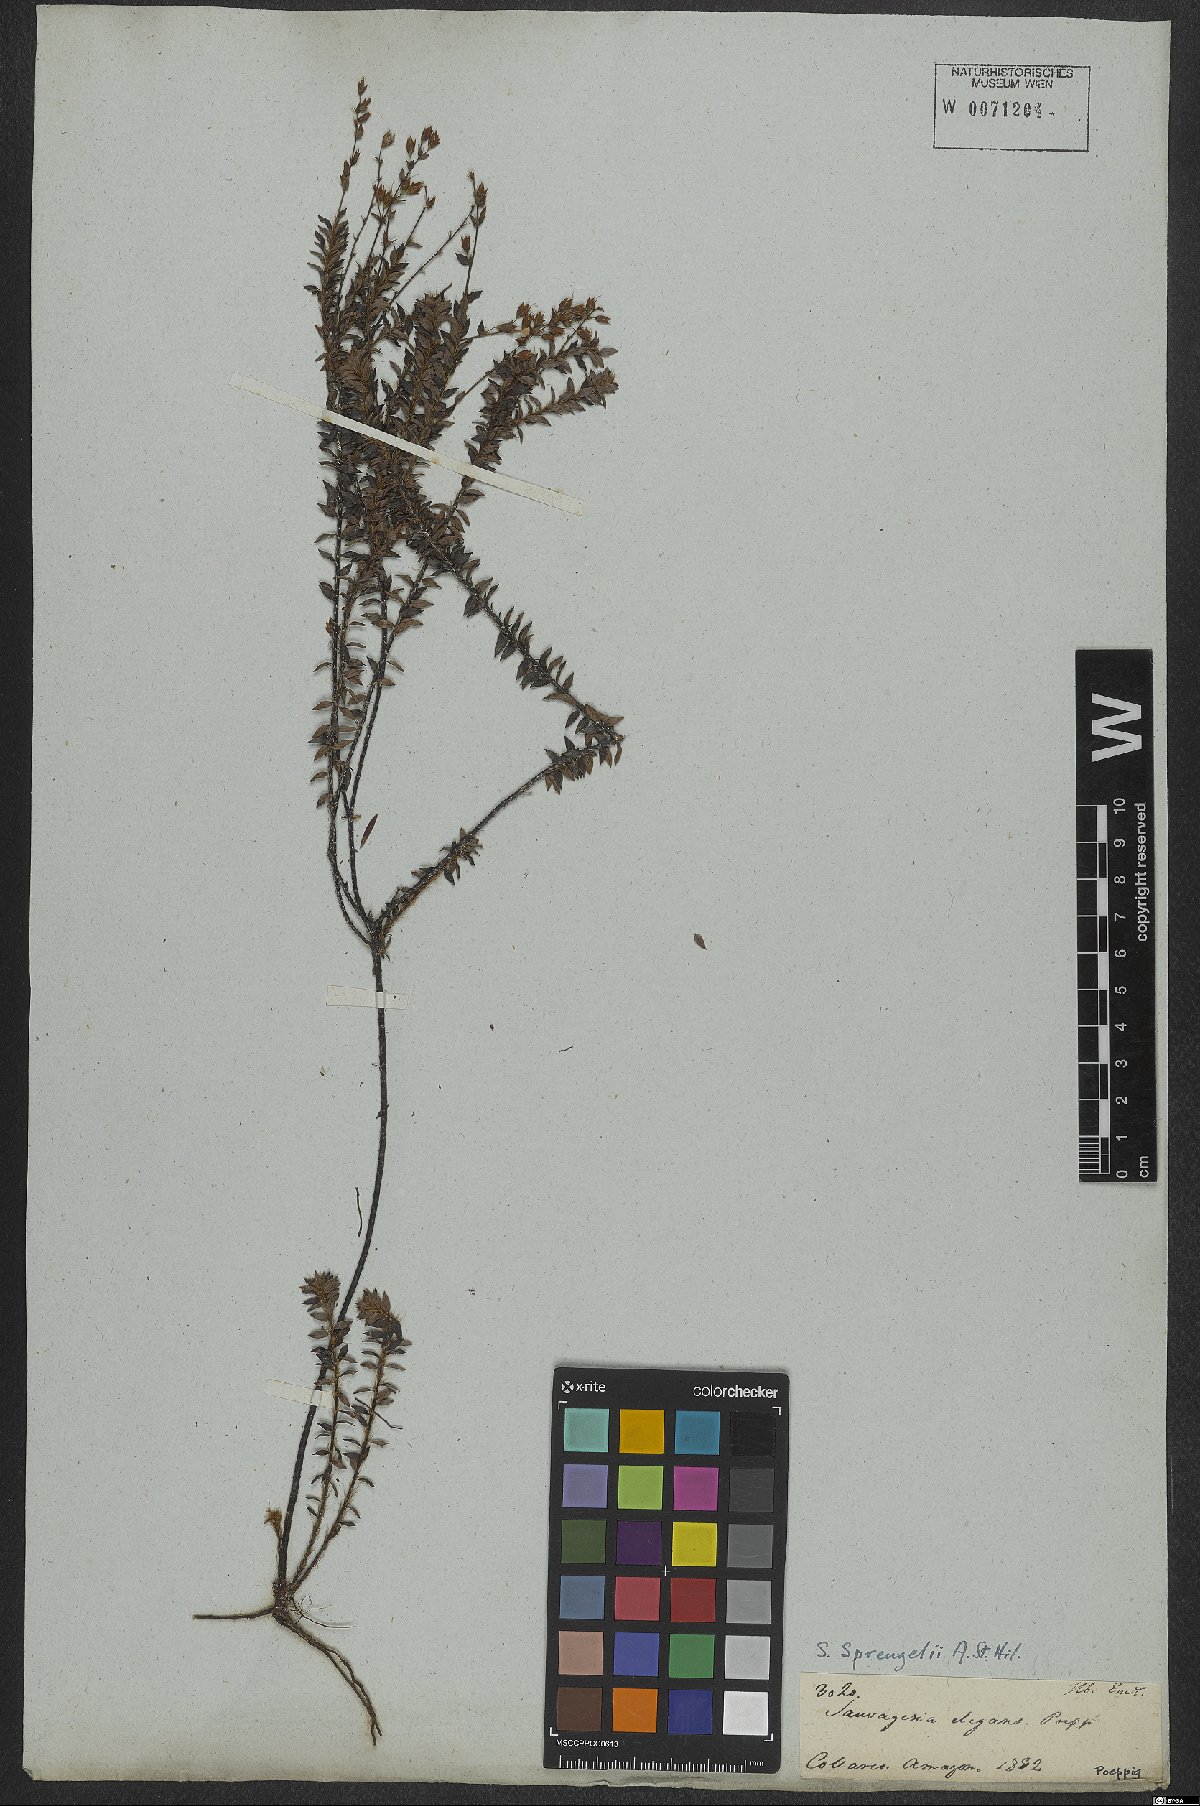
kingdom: Plantae
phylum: Tracheophyta
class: Magnoliopsida
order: Malpighiales
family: Ochnaceae
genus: Sauvagesia
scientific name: Sauvagesia tenella
